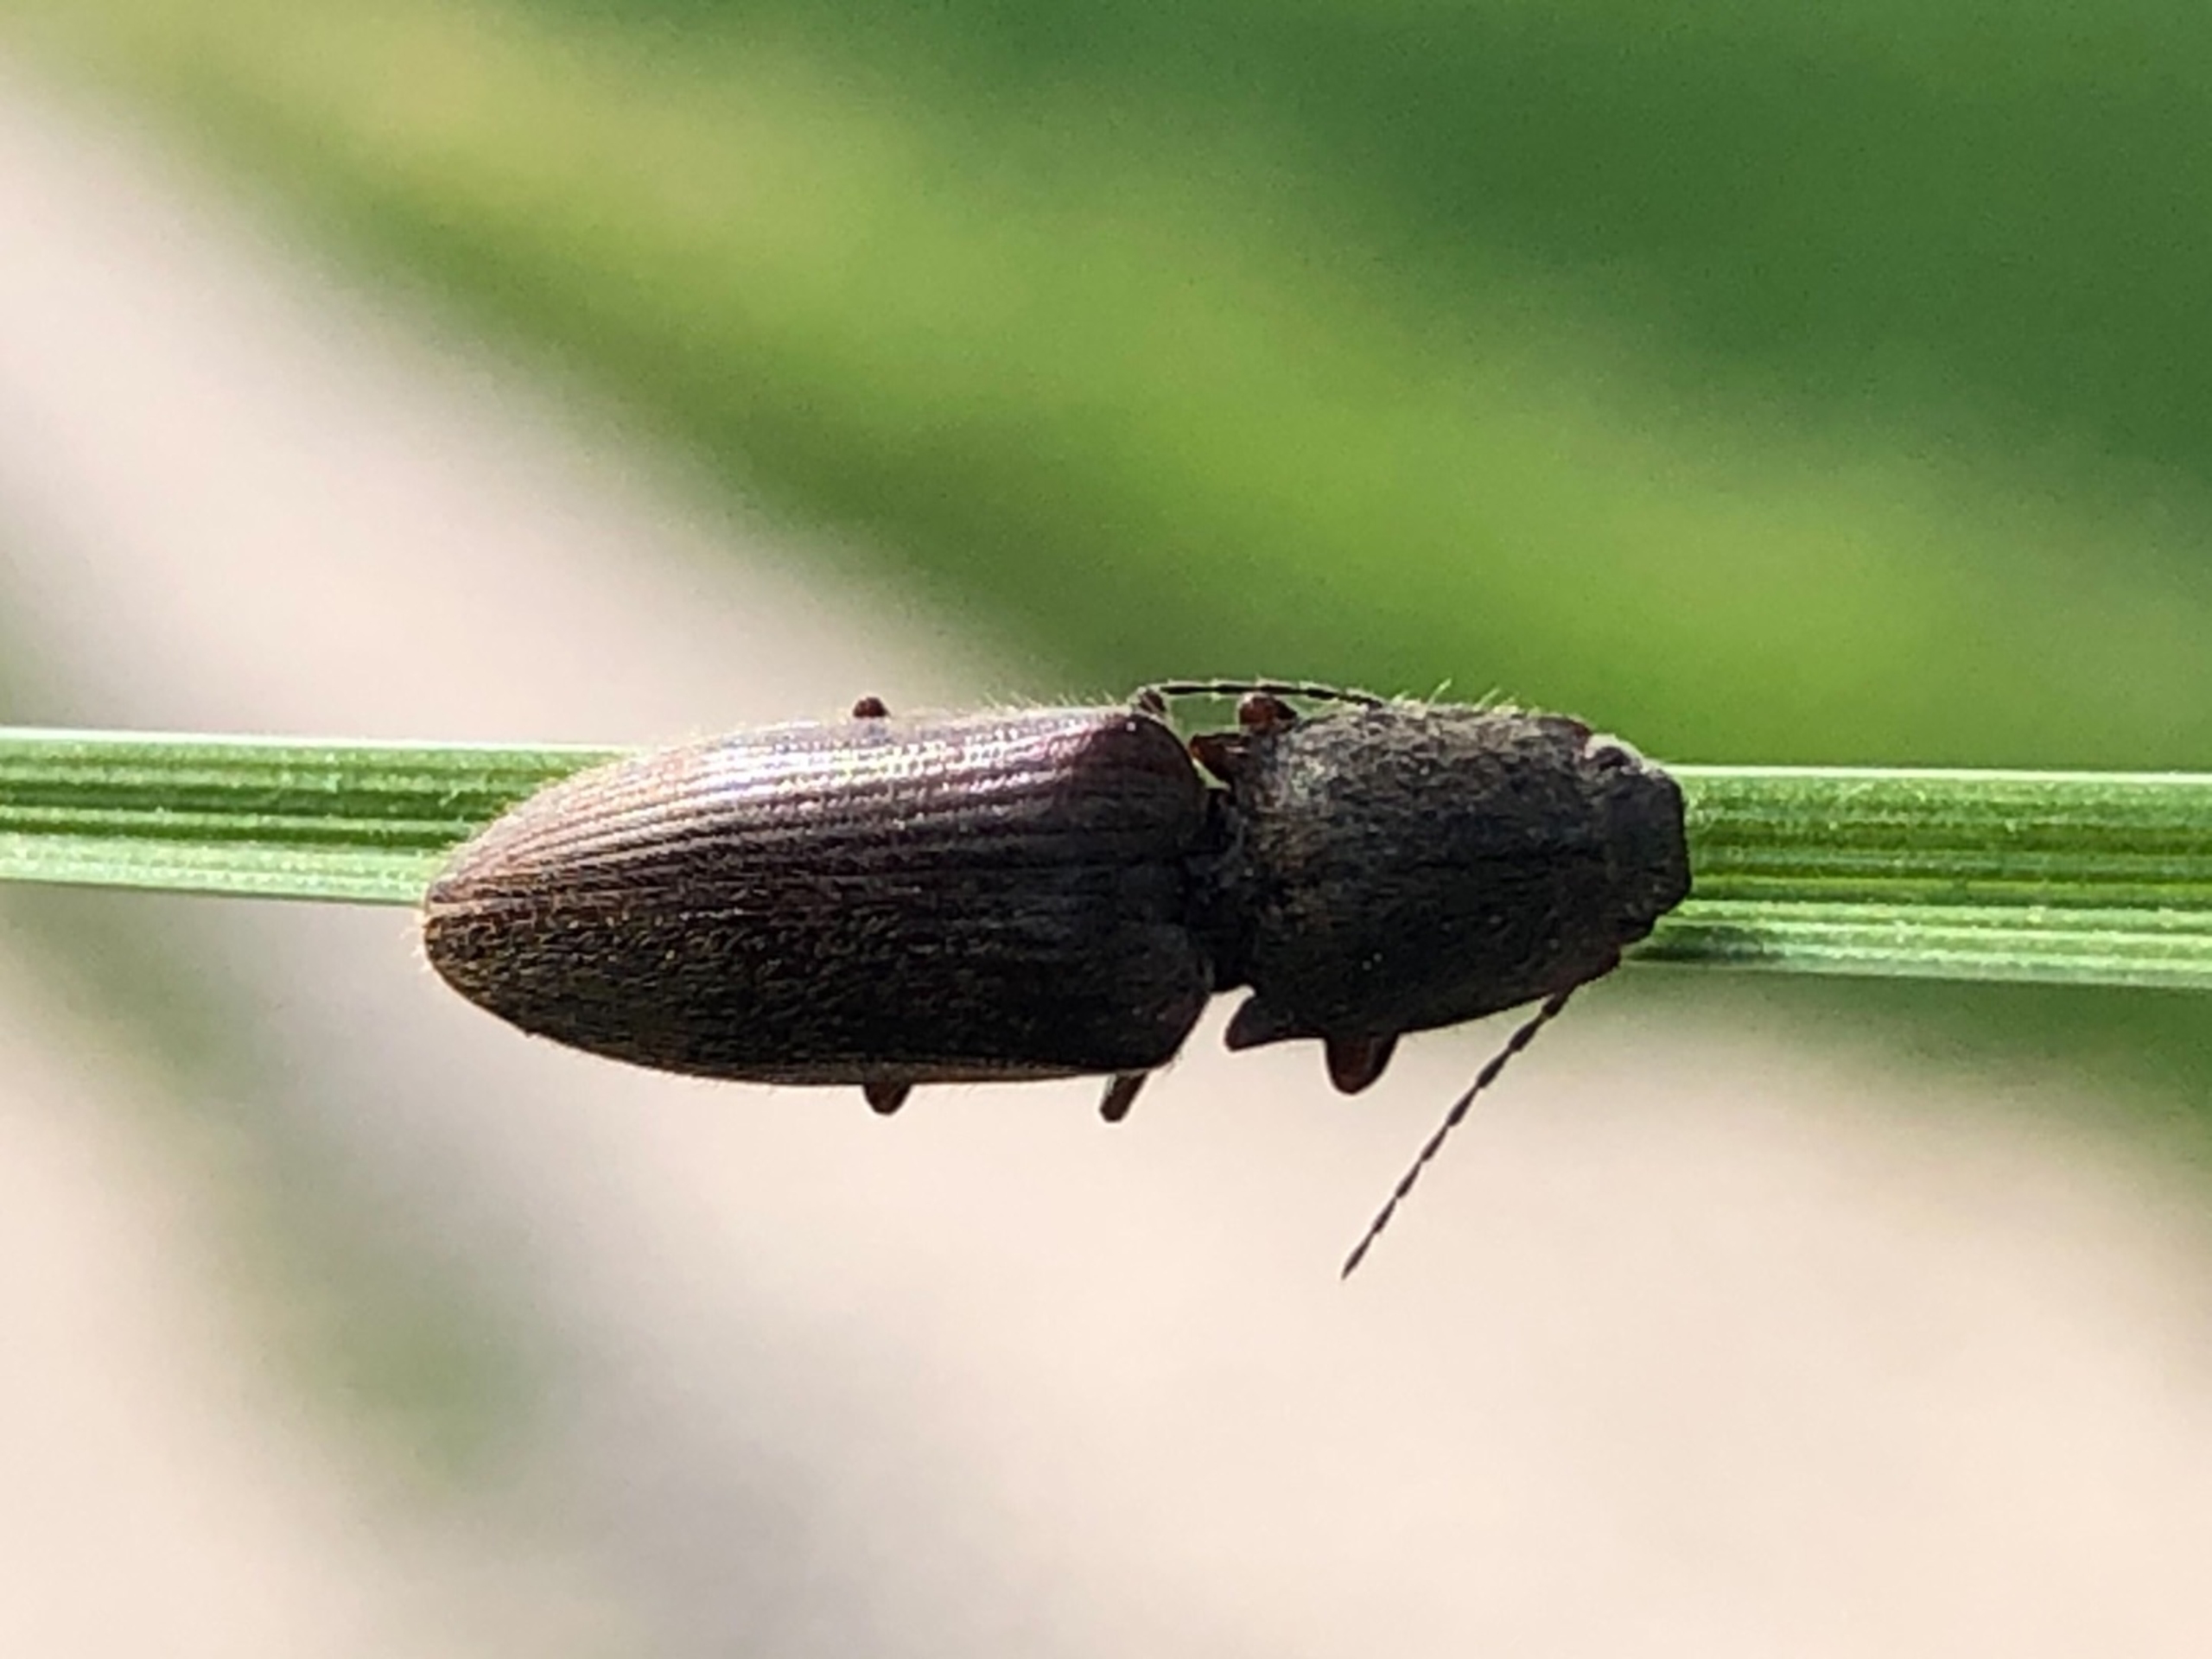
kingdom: Animalia
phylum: Arthropoda
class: Insecta
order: Coleoptera
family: Elateridae
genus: Athous
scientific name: Athous haemorrhoidalis
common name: Rødhalet busksmælder
